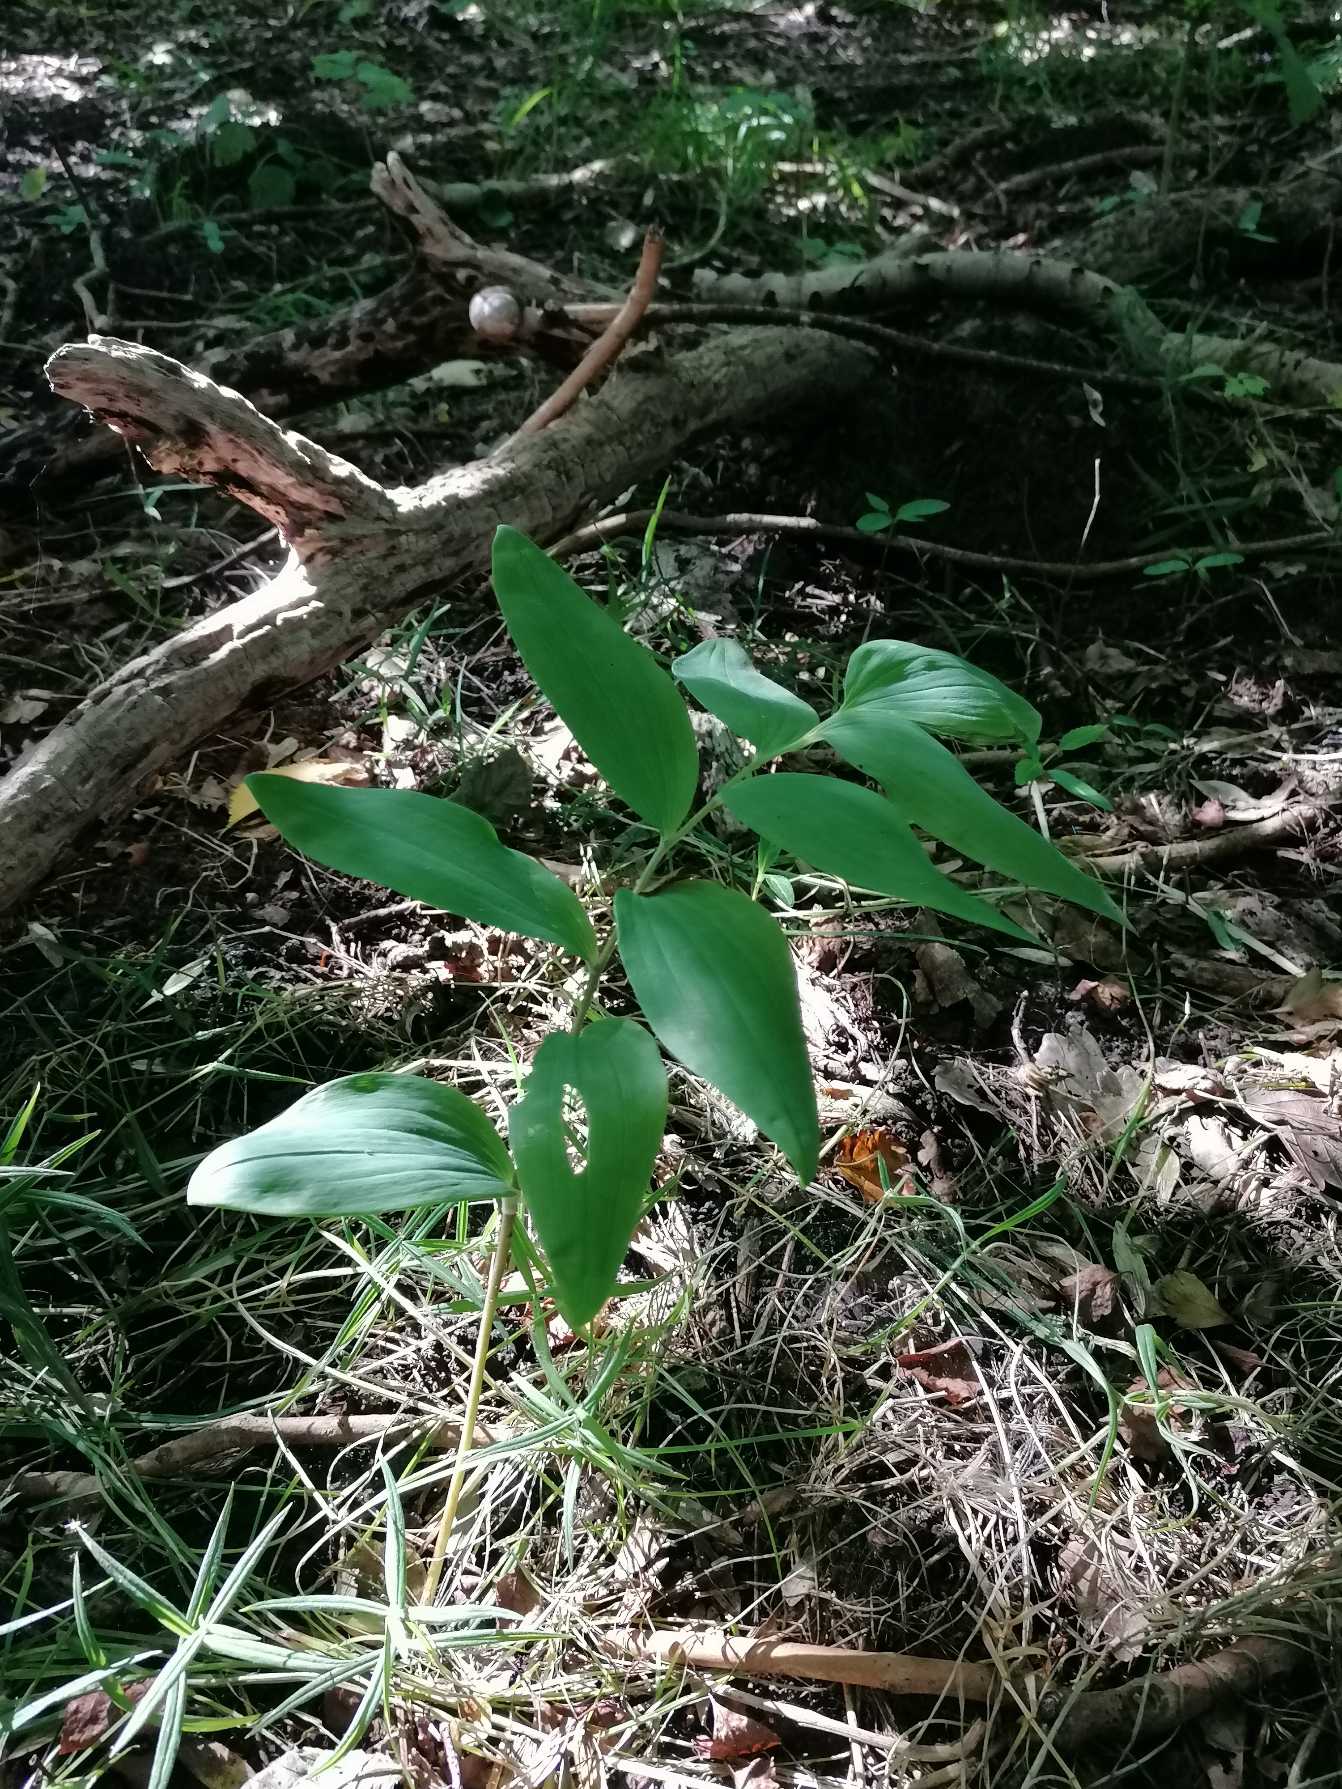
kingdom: Plantae
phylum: Tracheophyta
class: Liliopsida
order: Asparagales
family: Asparagaceae
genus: Polygonatum
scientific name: Polygonatum multiflorum
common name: Stor konval
